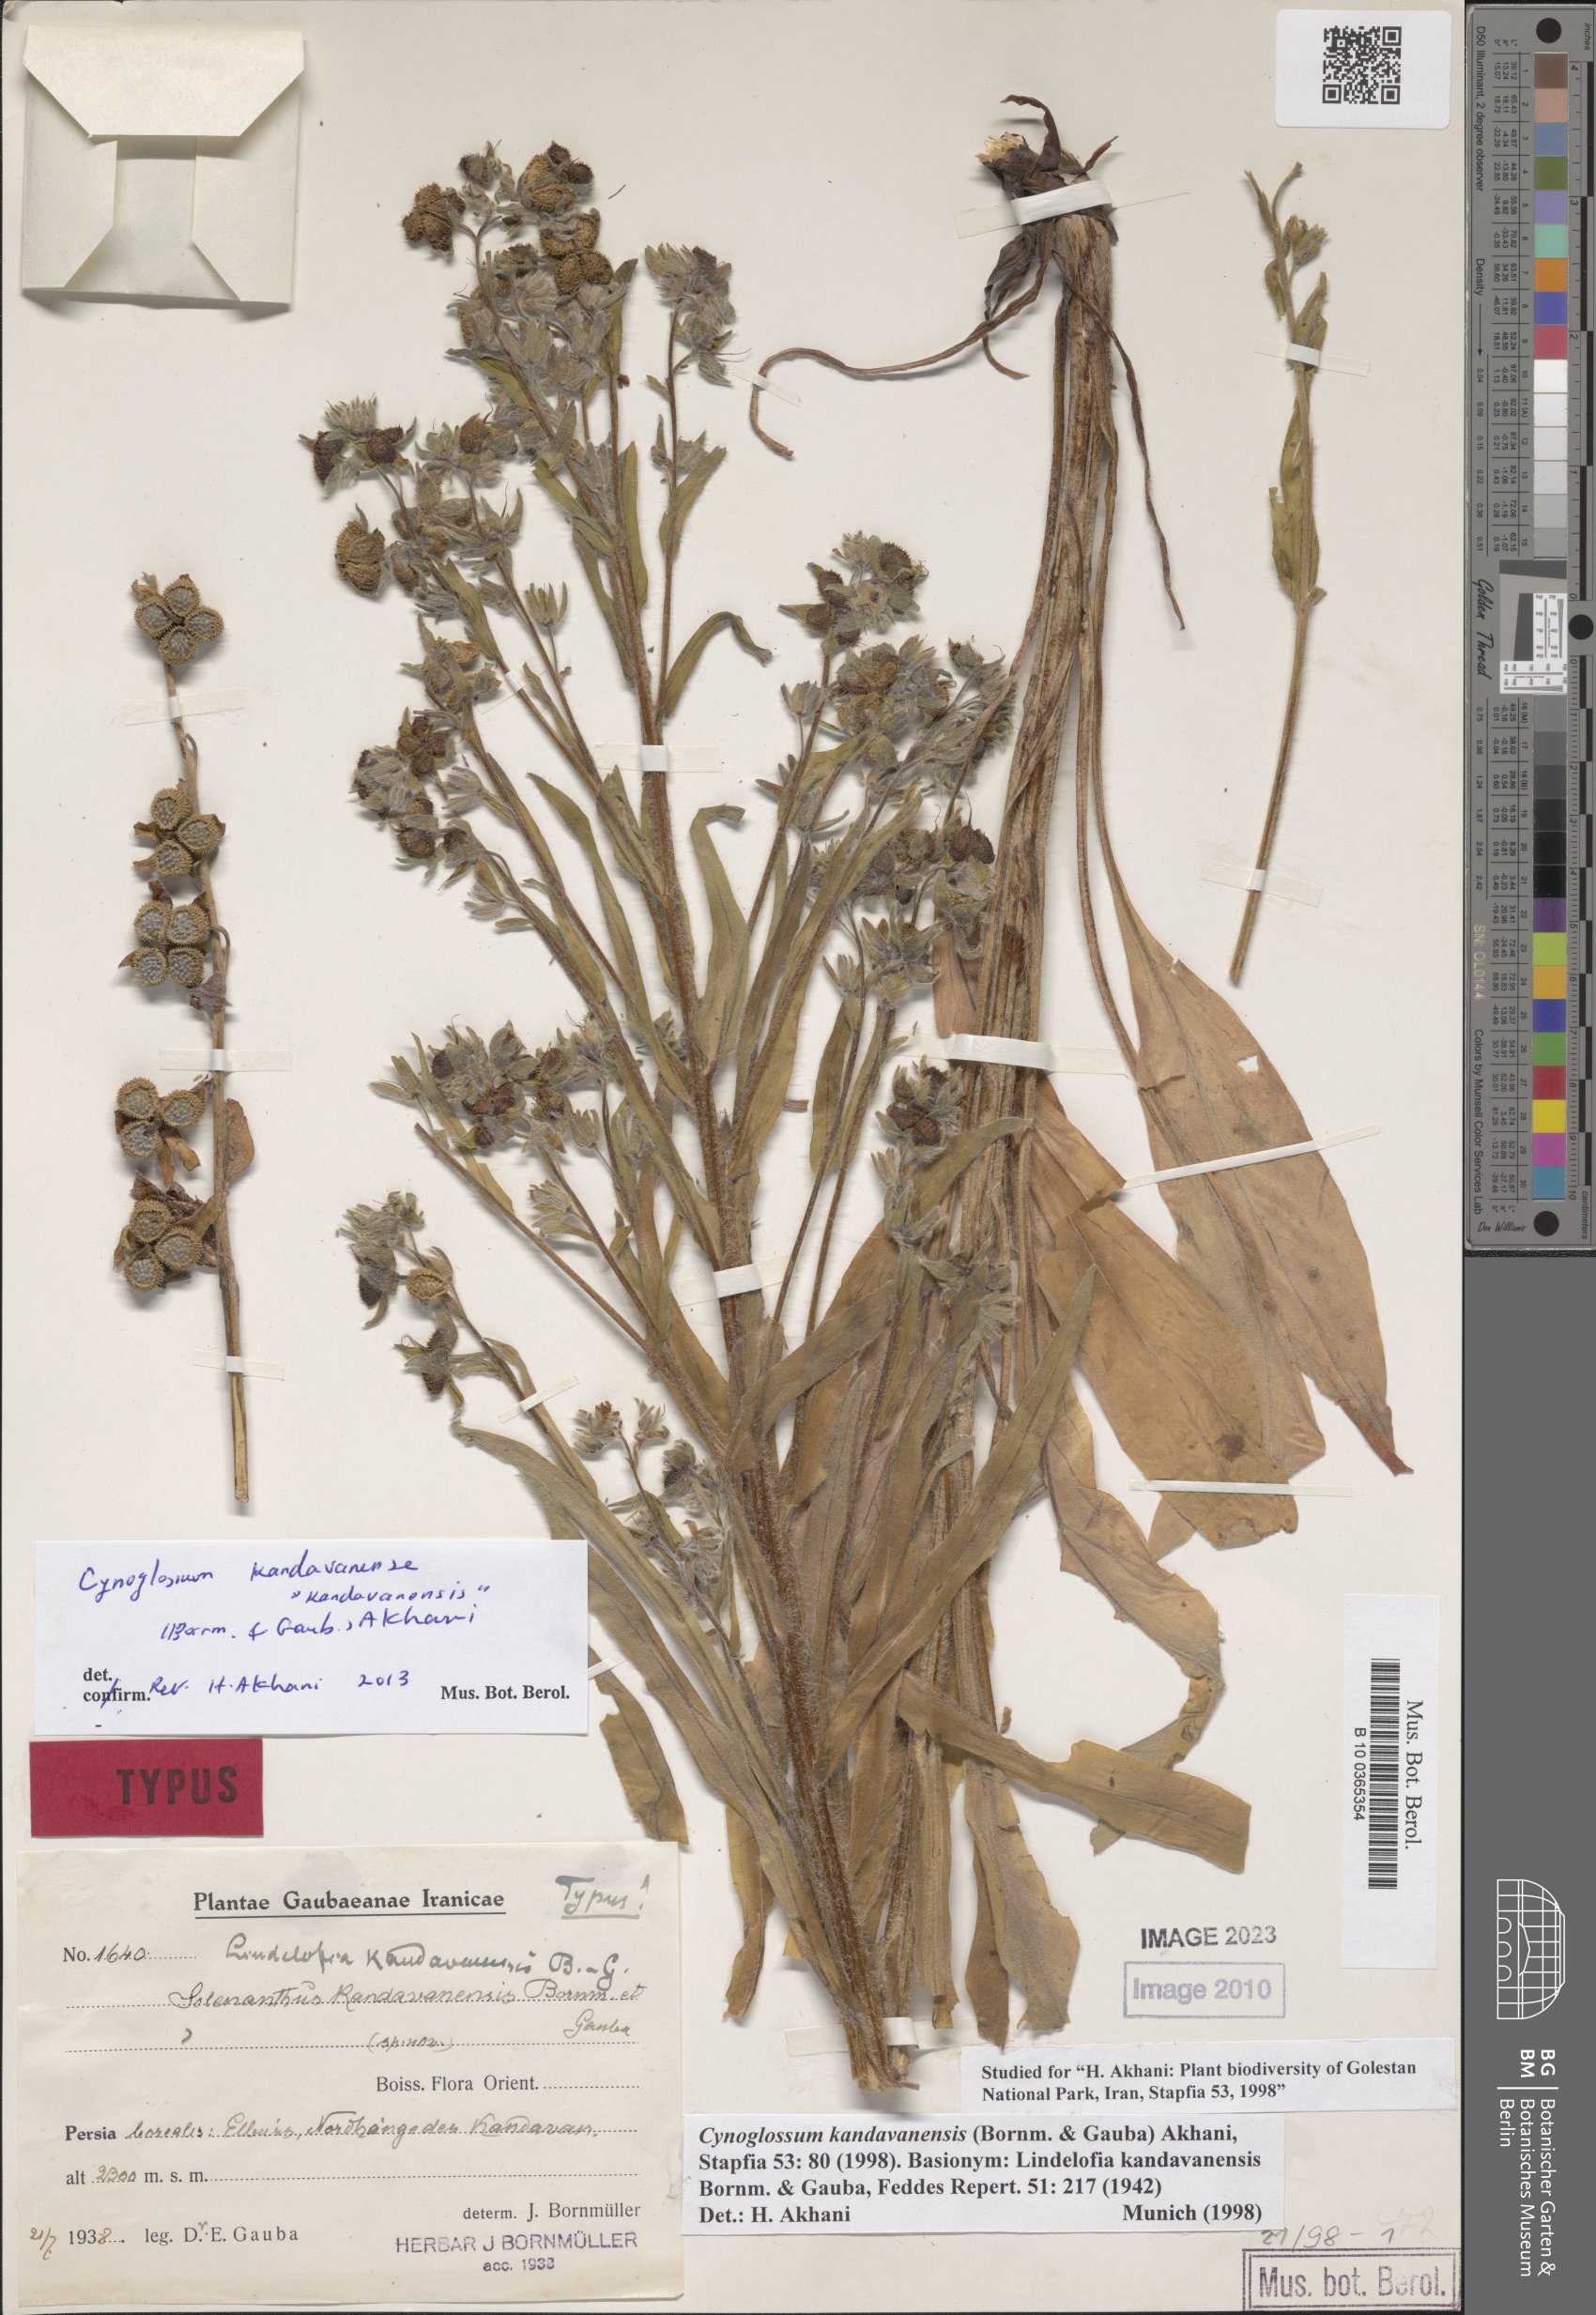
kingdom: Plantae
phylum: Tracheophyta
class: Magnoliopsida
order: Boraginales
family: Boraginaceae
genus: Lindelofia
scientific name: Lindelofia kandavanensis
